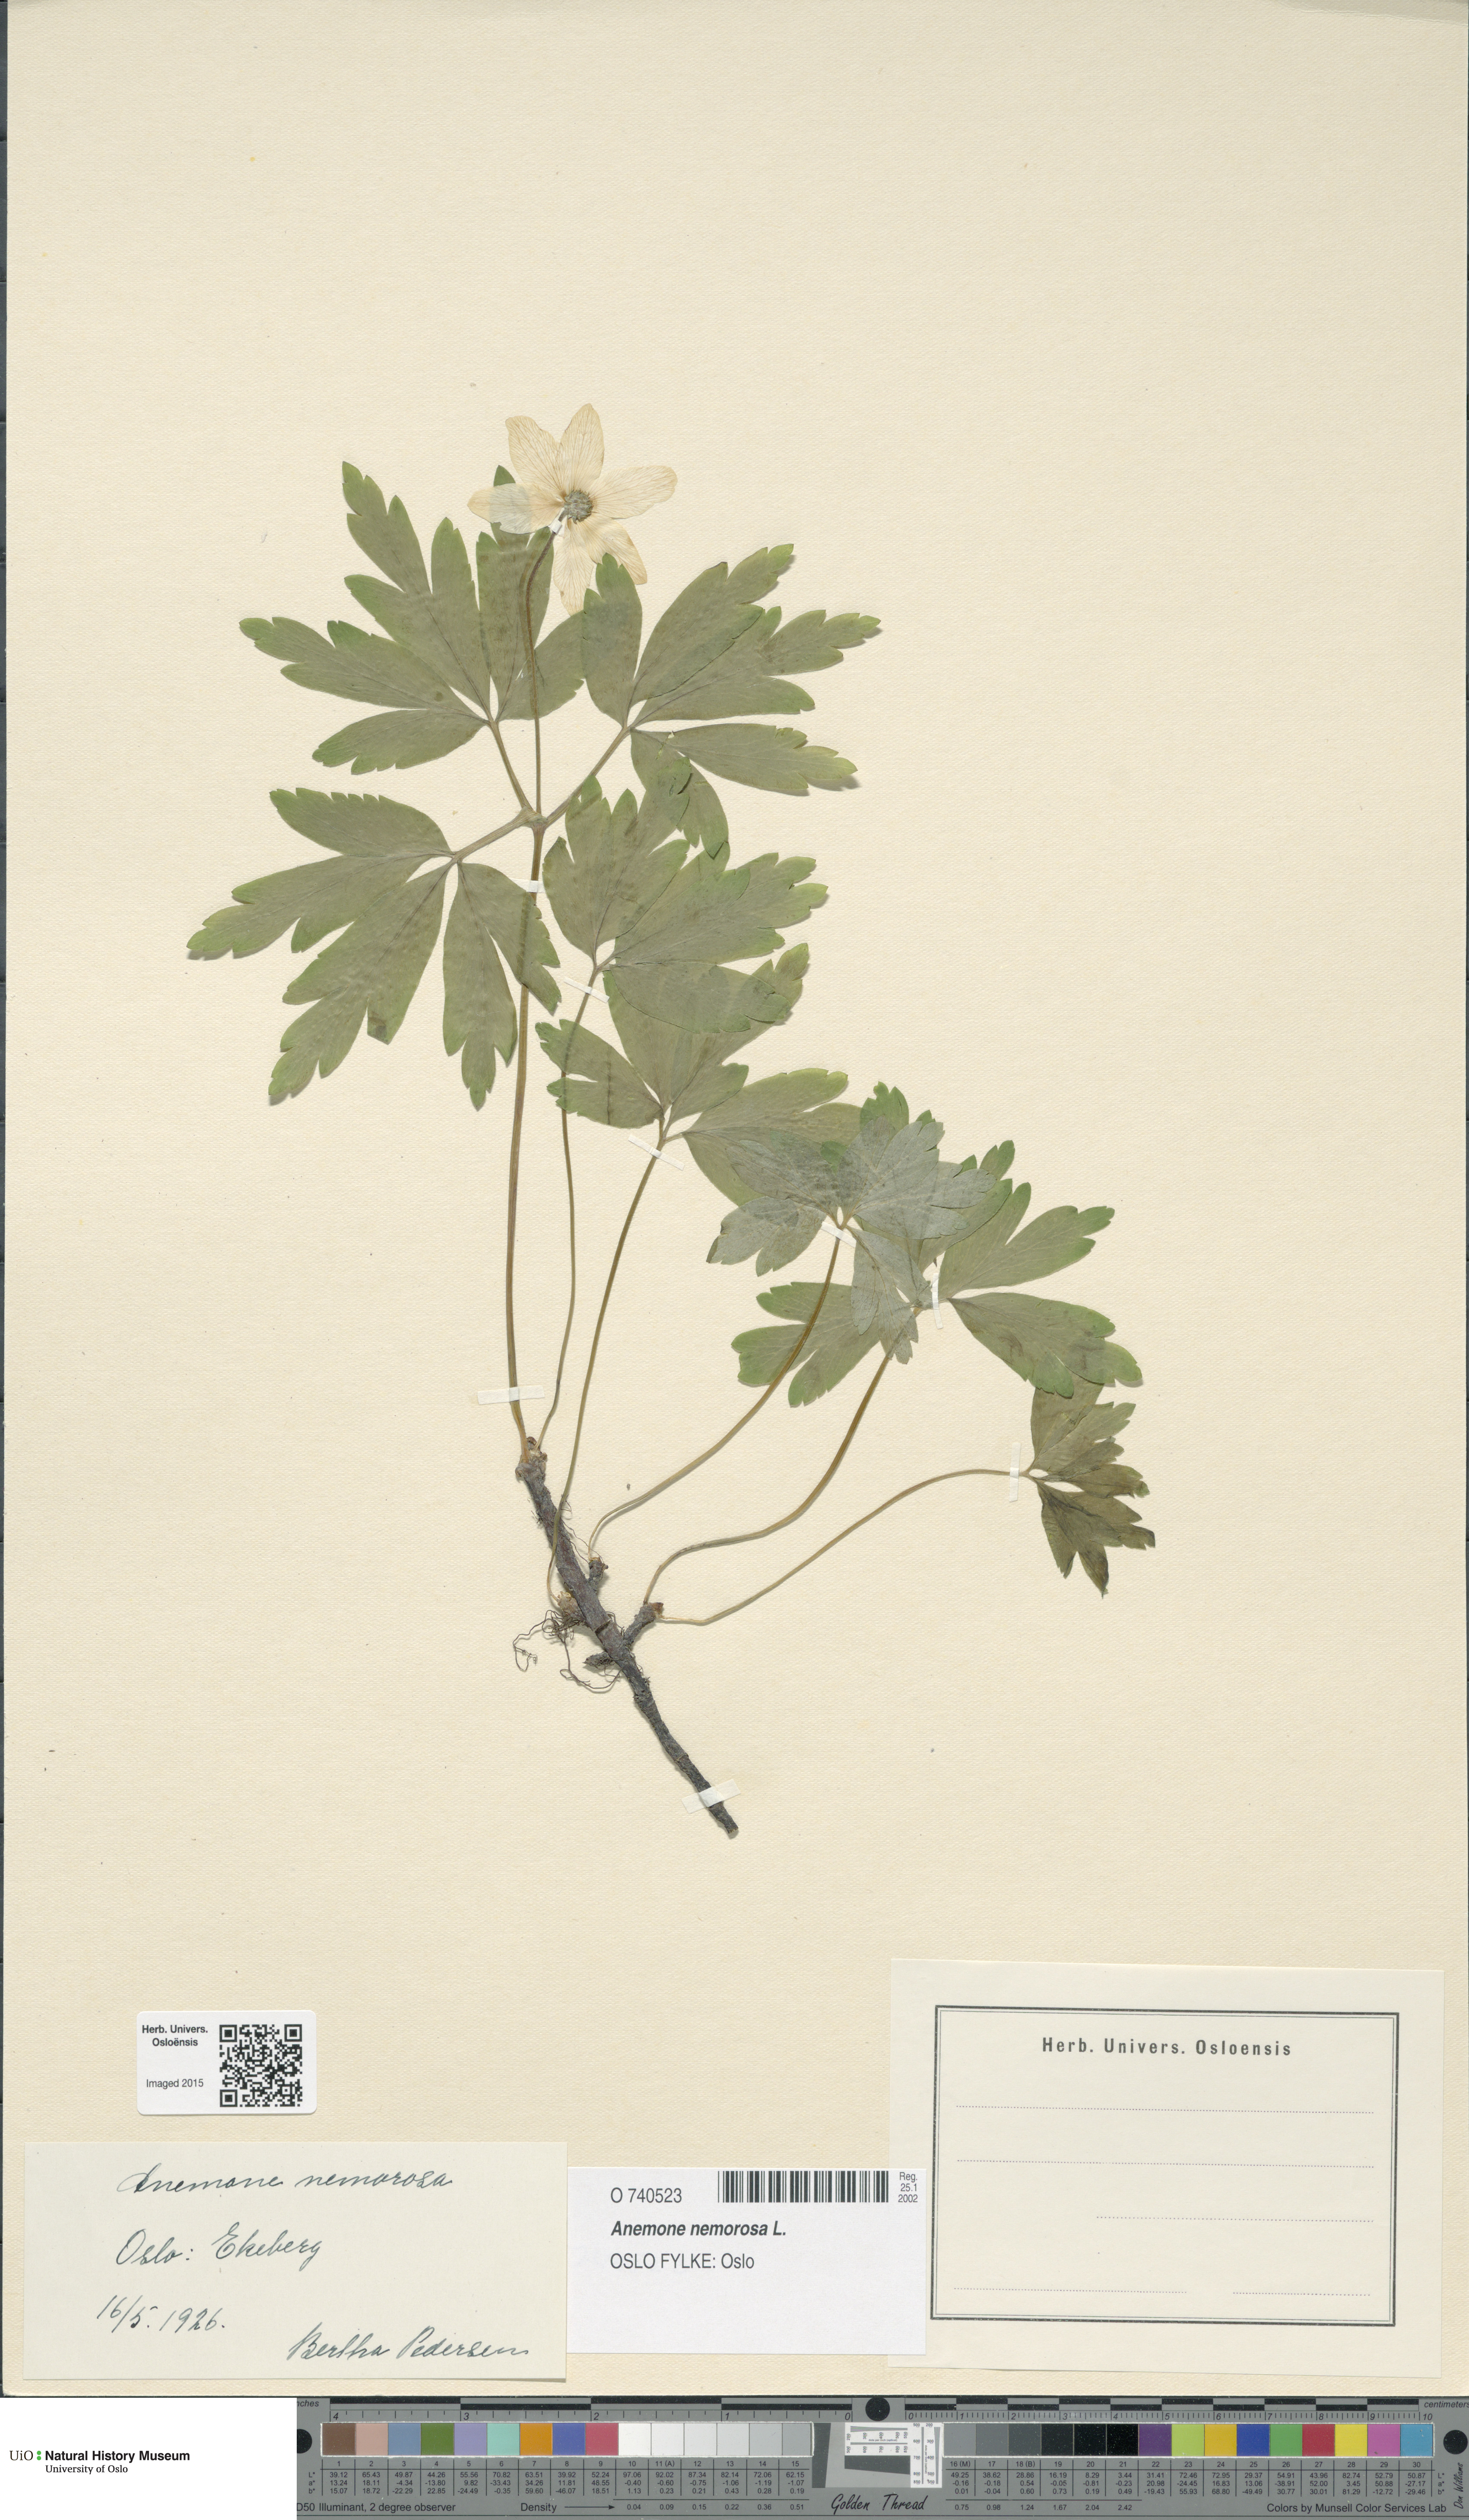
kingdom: Plantae
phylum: Tracheophyta
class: Magnoliopsida
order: Ranunculales
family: Ranunculaceae
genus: Anemone
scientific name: Anemone nemorosa
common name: Wood anemone
